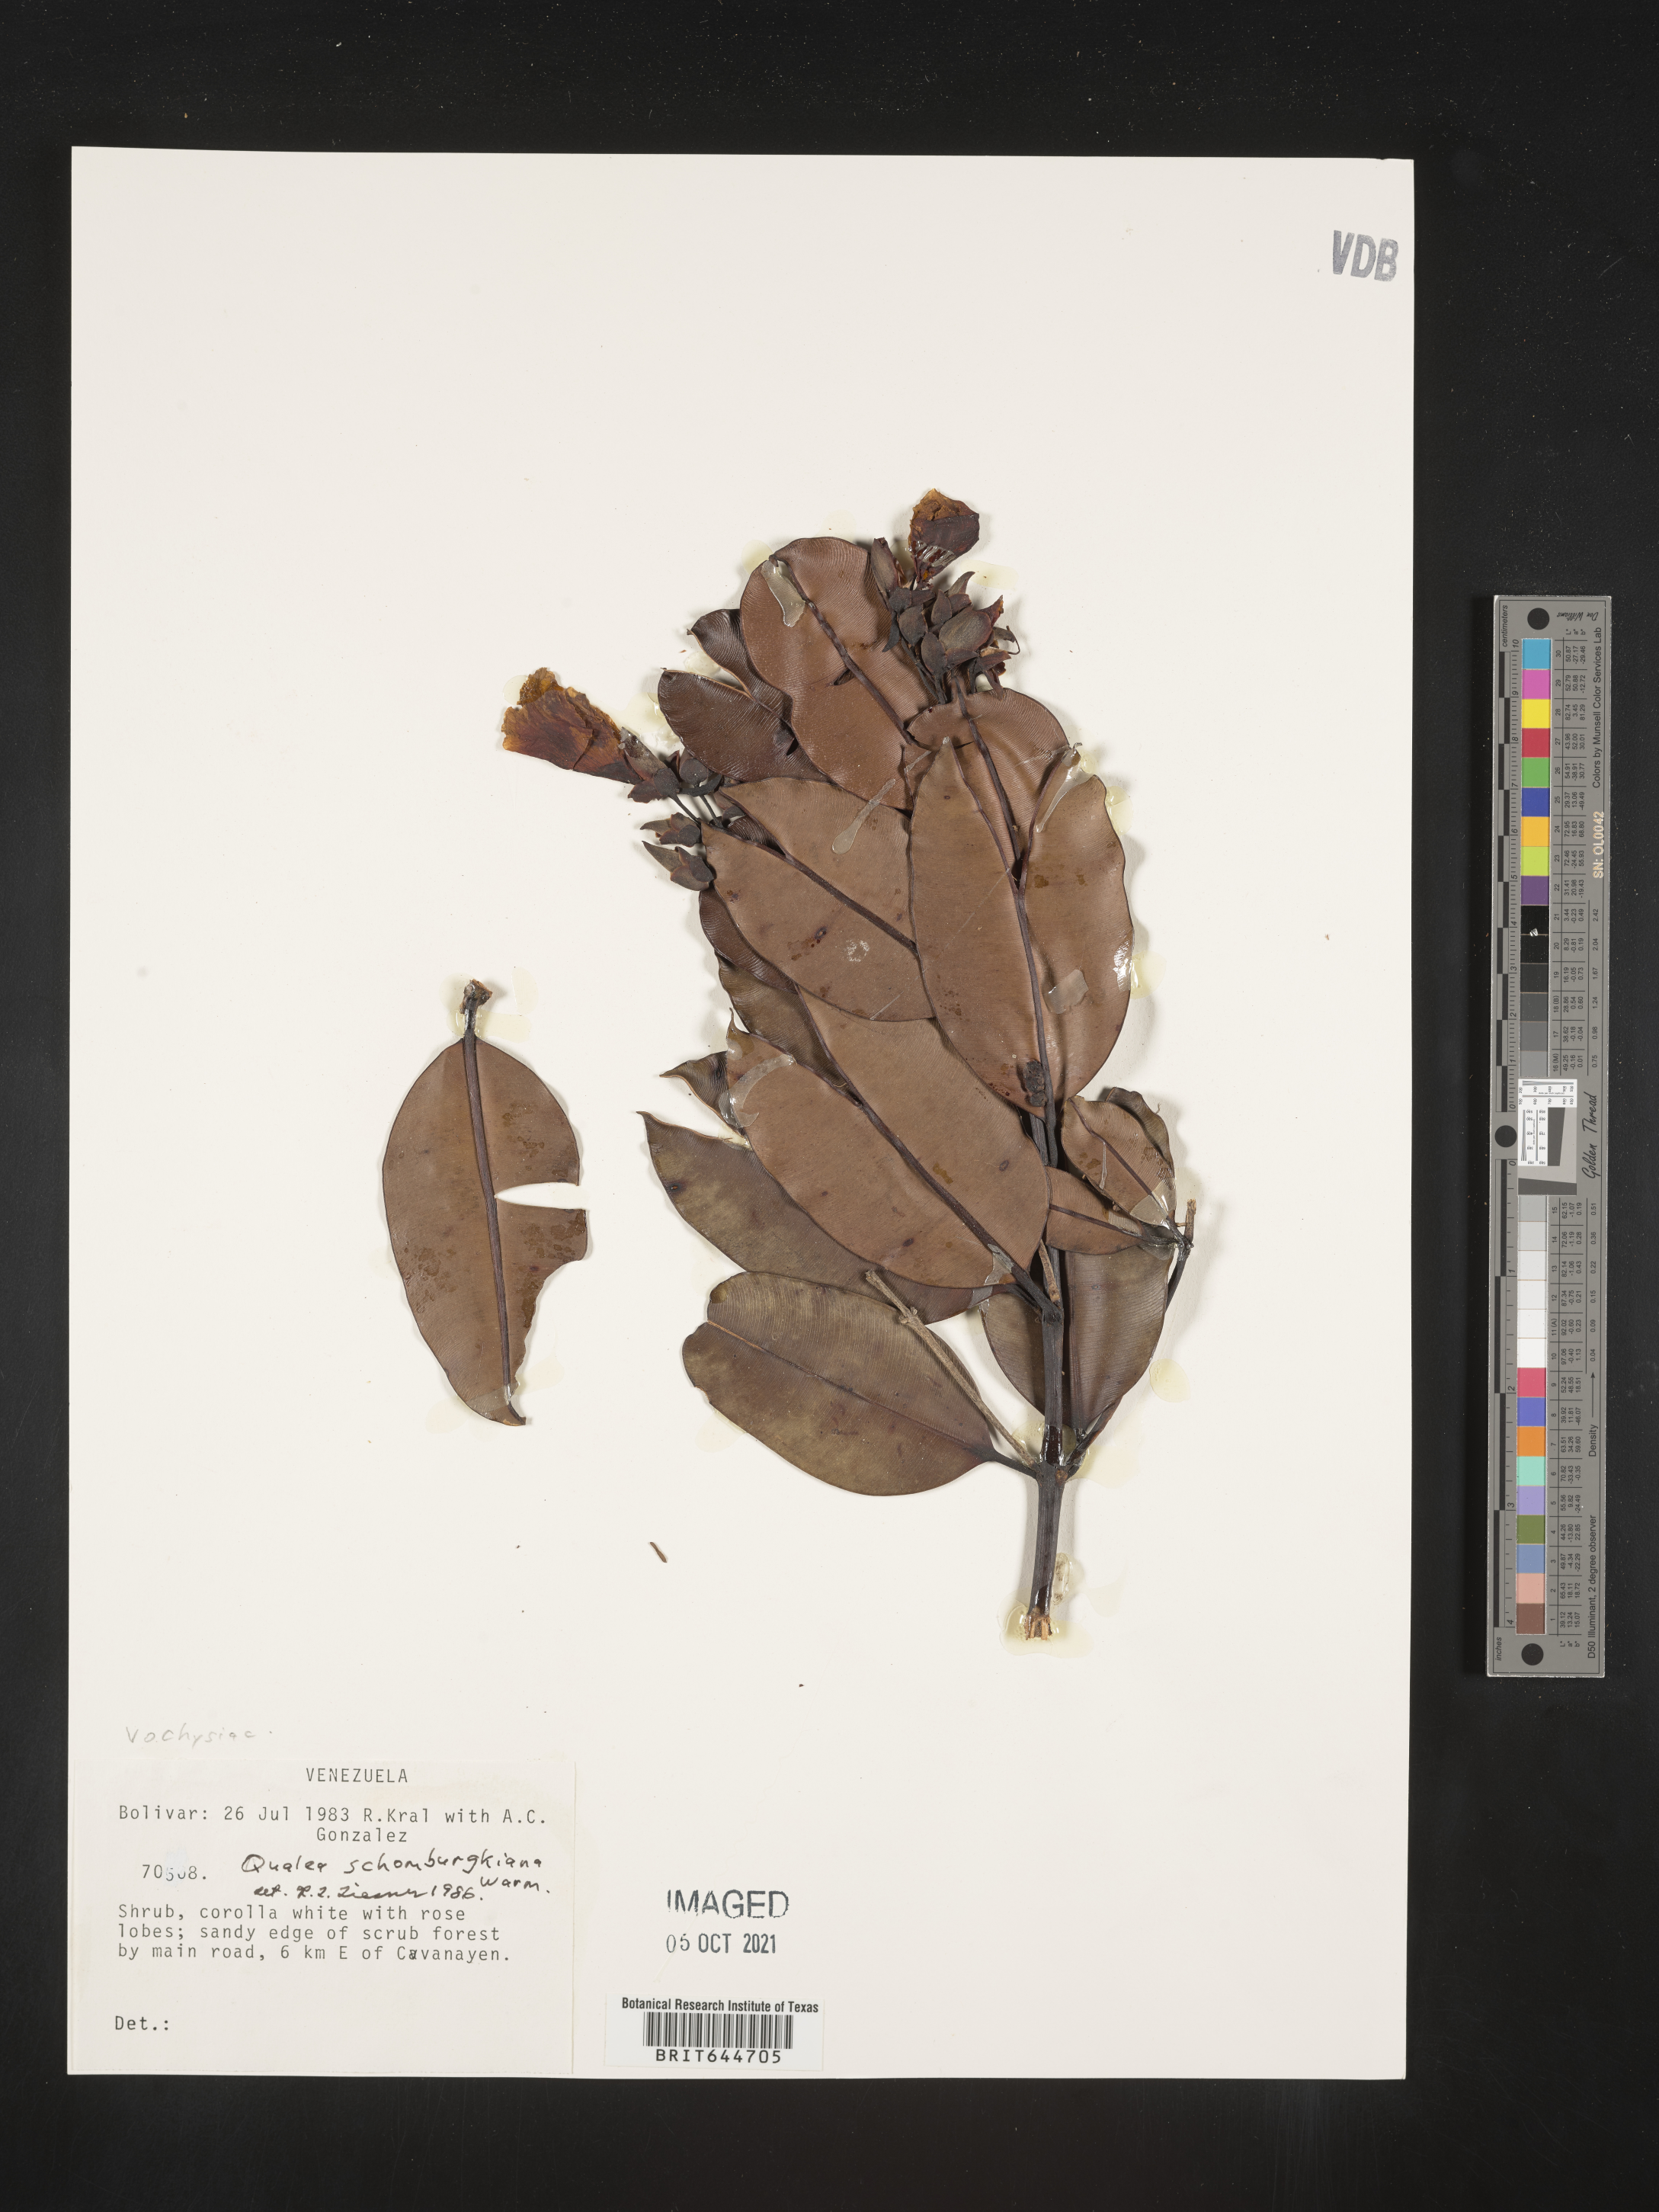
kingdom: Plantae
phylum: Tracheophyta
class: Magnoliopsida
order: Myrtales
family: Vochysiaceae
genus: Qualea
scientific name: Qualea
